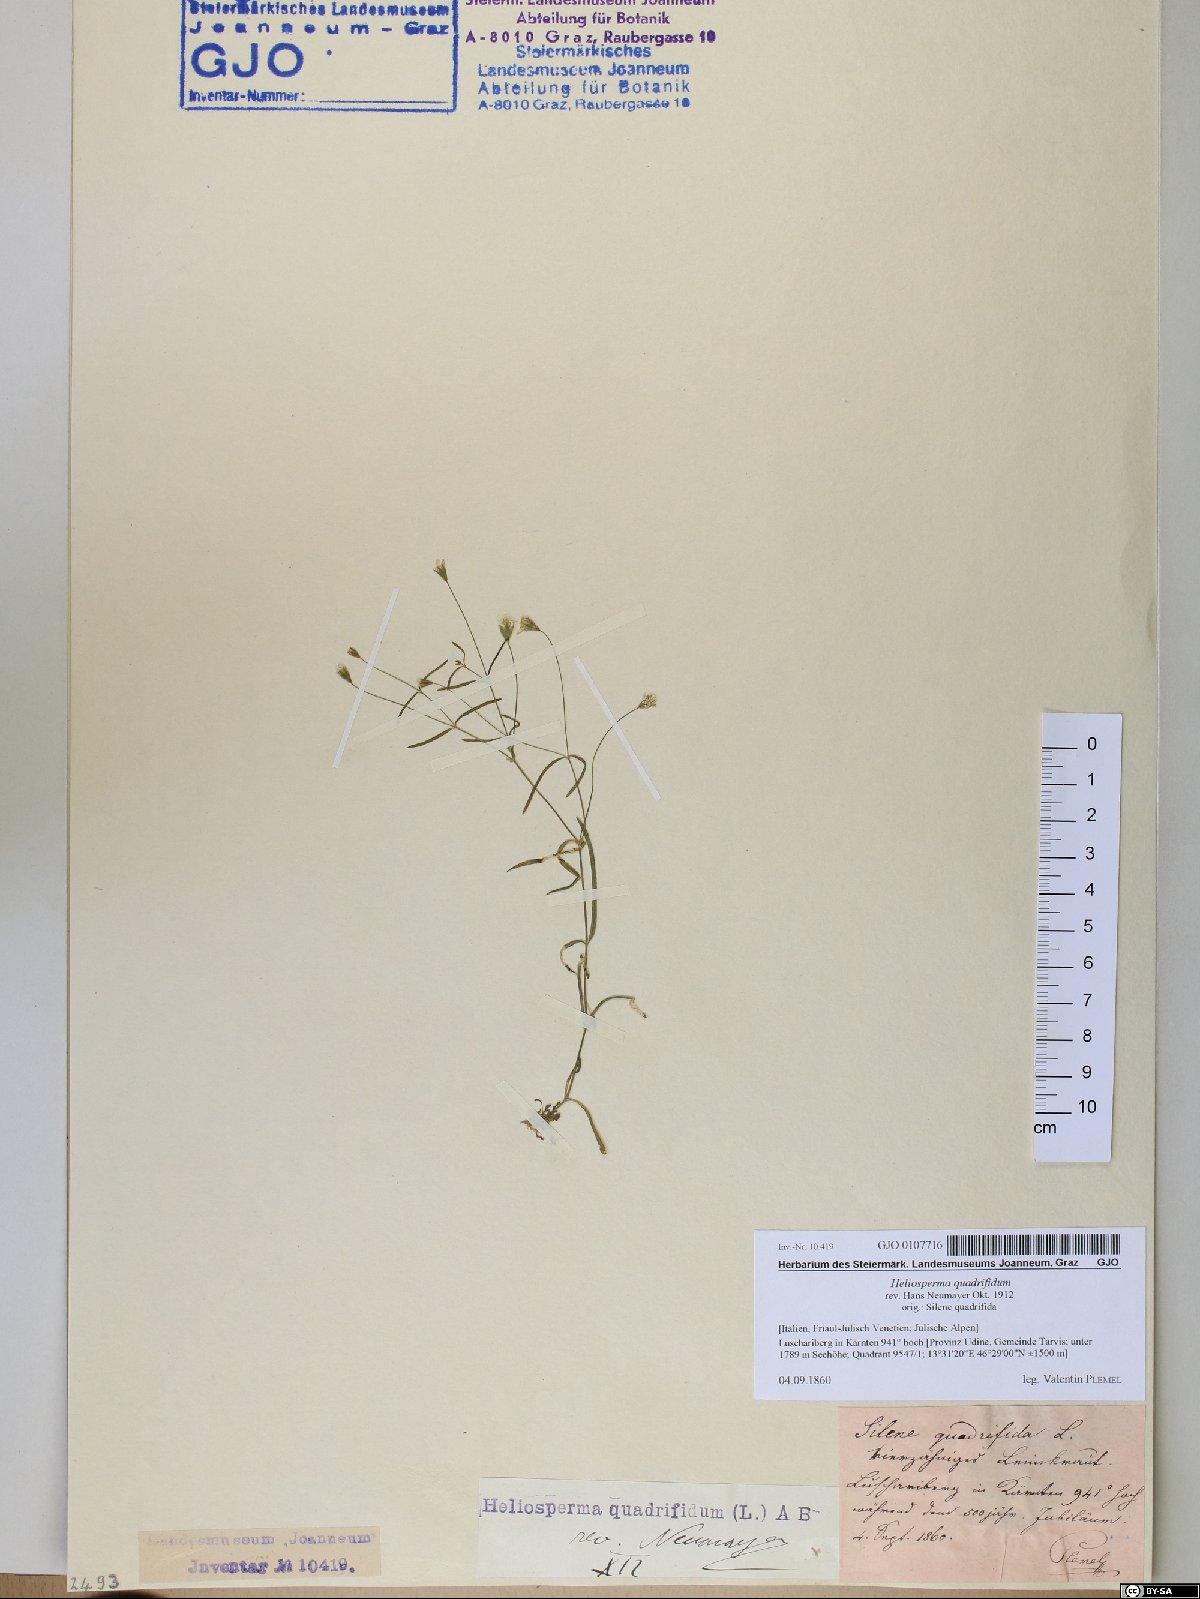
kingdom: Plantae
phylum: Tracheophyta
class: Magnoliopsida
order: Caryophyllales
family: Caryophyllaceae
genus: Heliosperma
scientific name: Heliosperma alpestre
